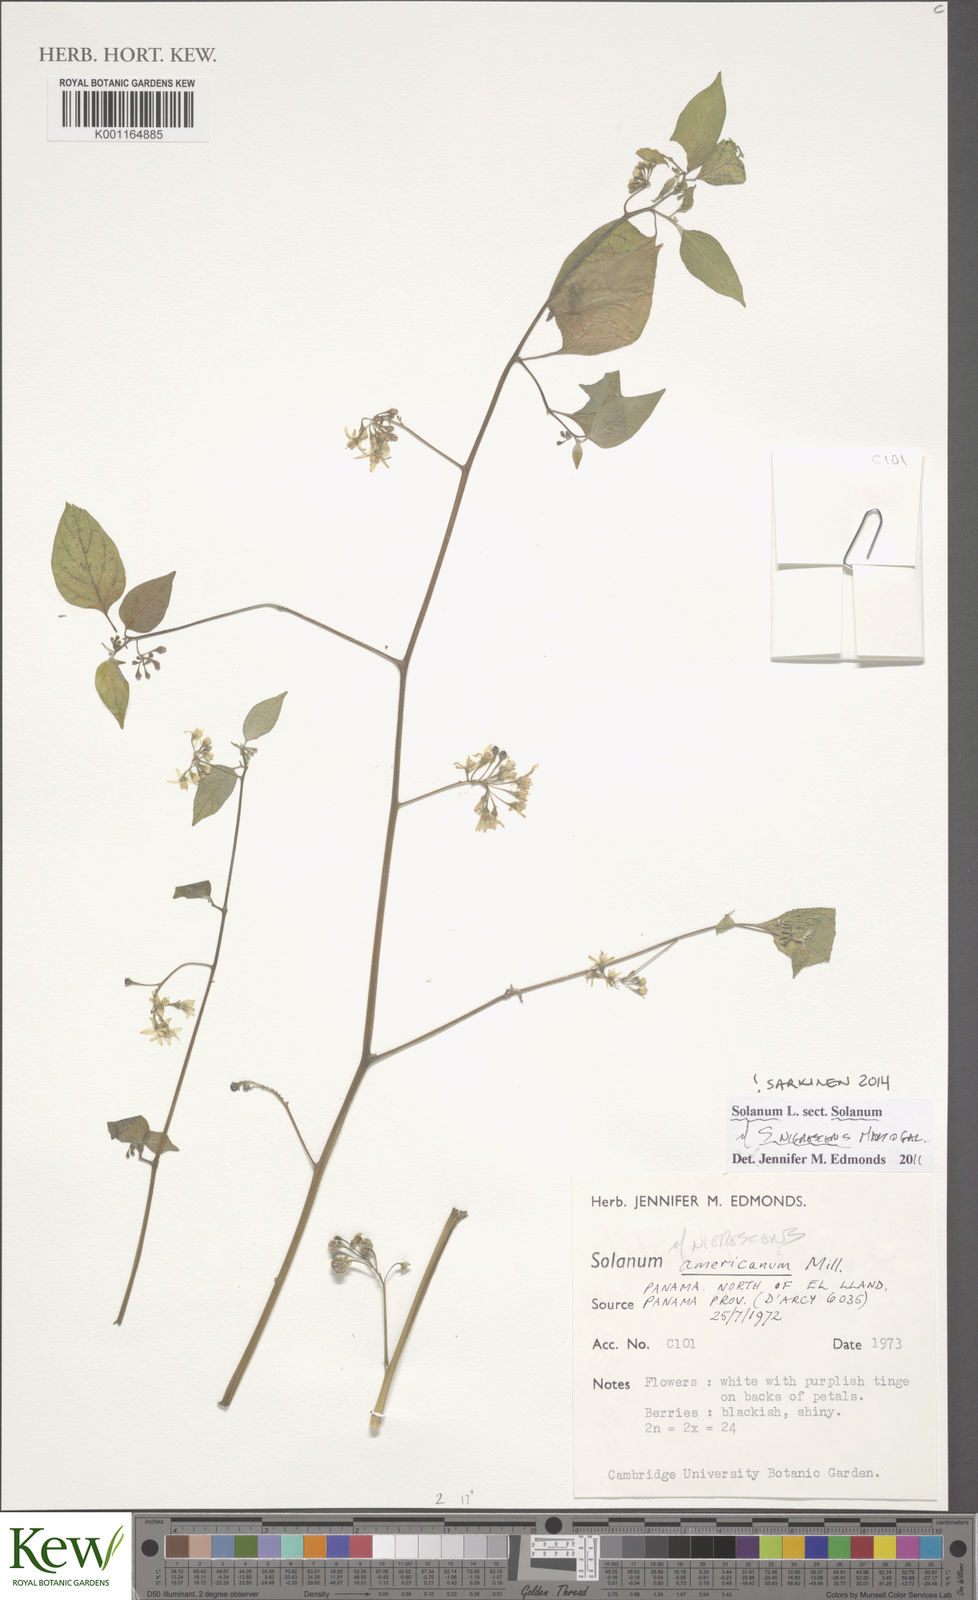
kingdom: Plantae
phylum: Tracheophyta
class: Magnoliopsida
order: Solanales
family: Solanaceae
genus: Solanum
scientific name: Solanum nigrescens
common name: Divine nightshade
